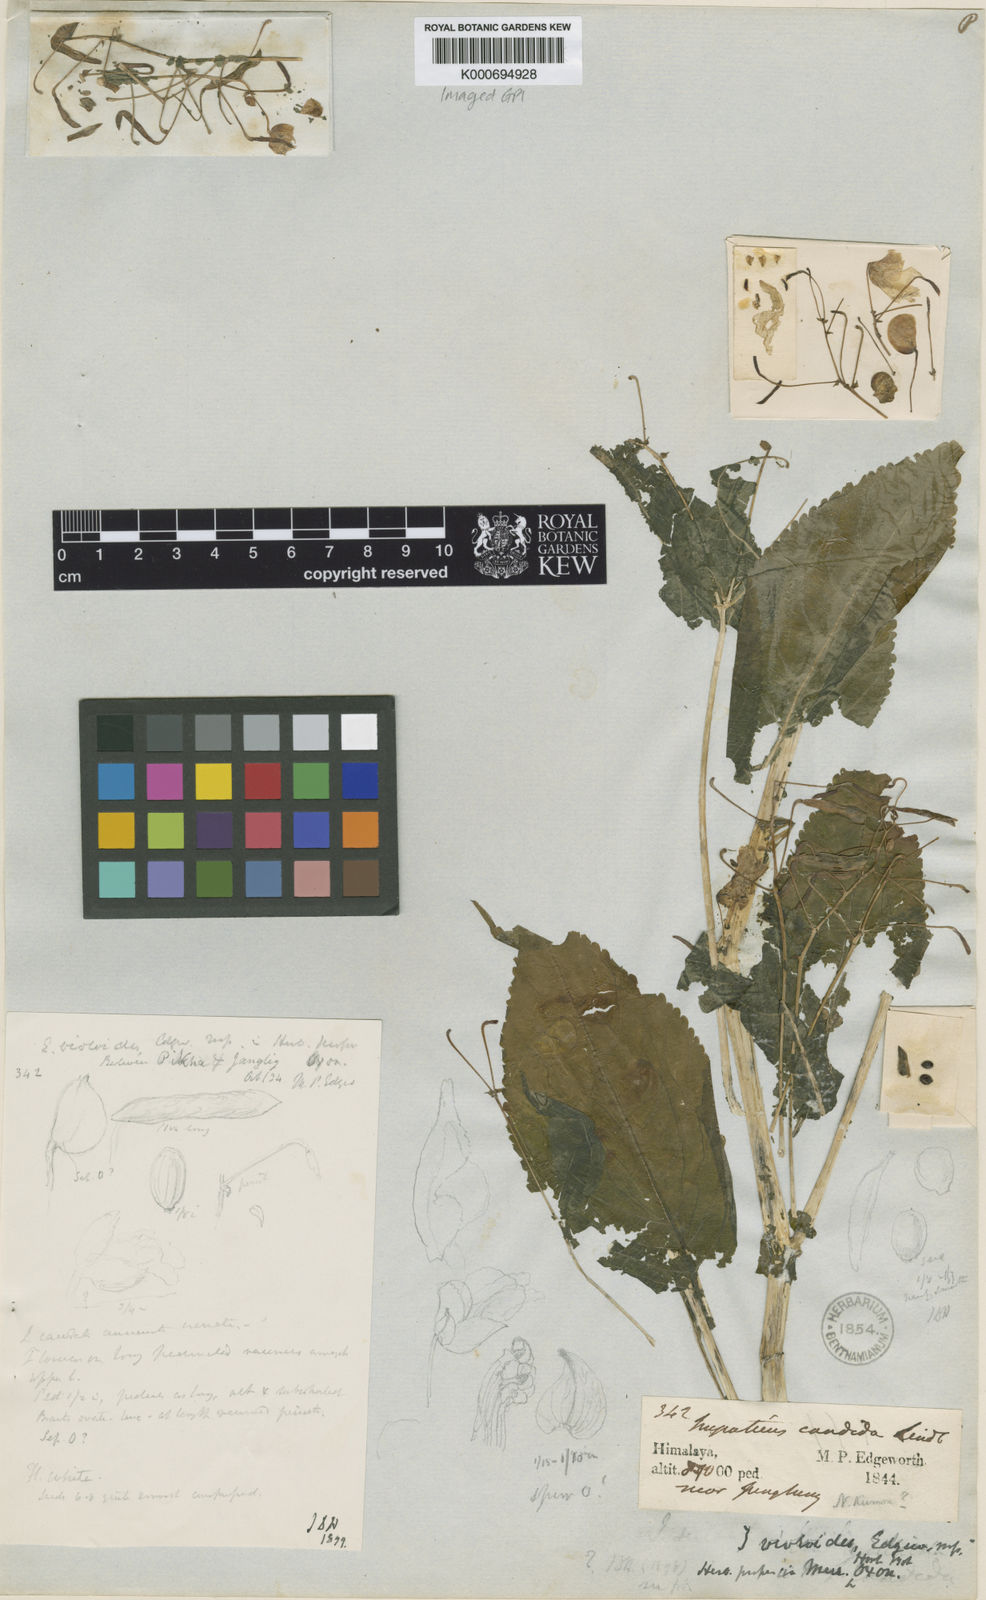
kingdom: Plantae
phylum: Tracheophyta
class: Magnoliopsida
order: Ericales
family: Balsaminaceae
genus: Impatiens
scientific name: Impatiens sulcata
